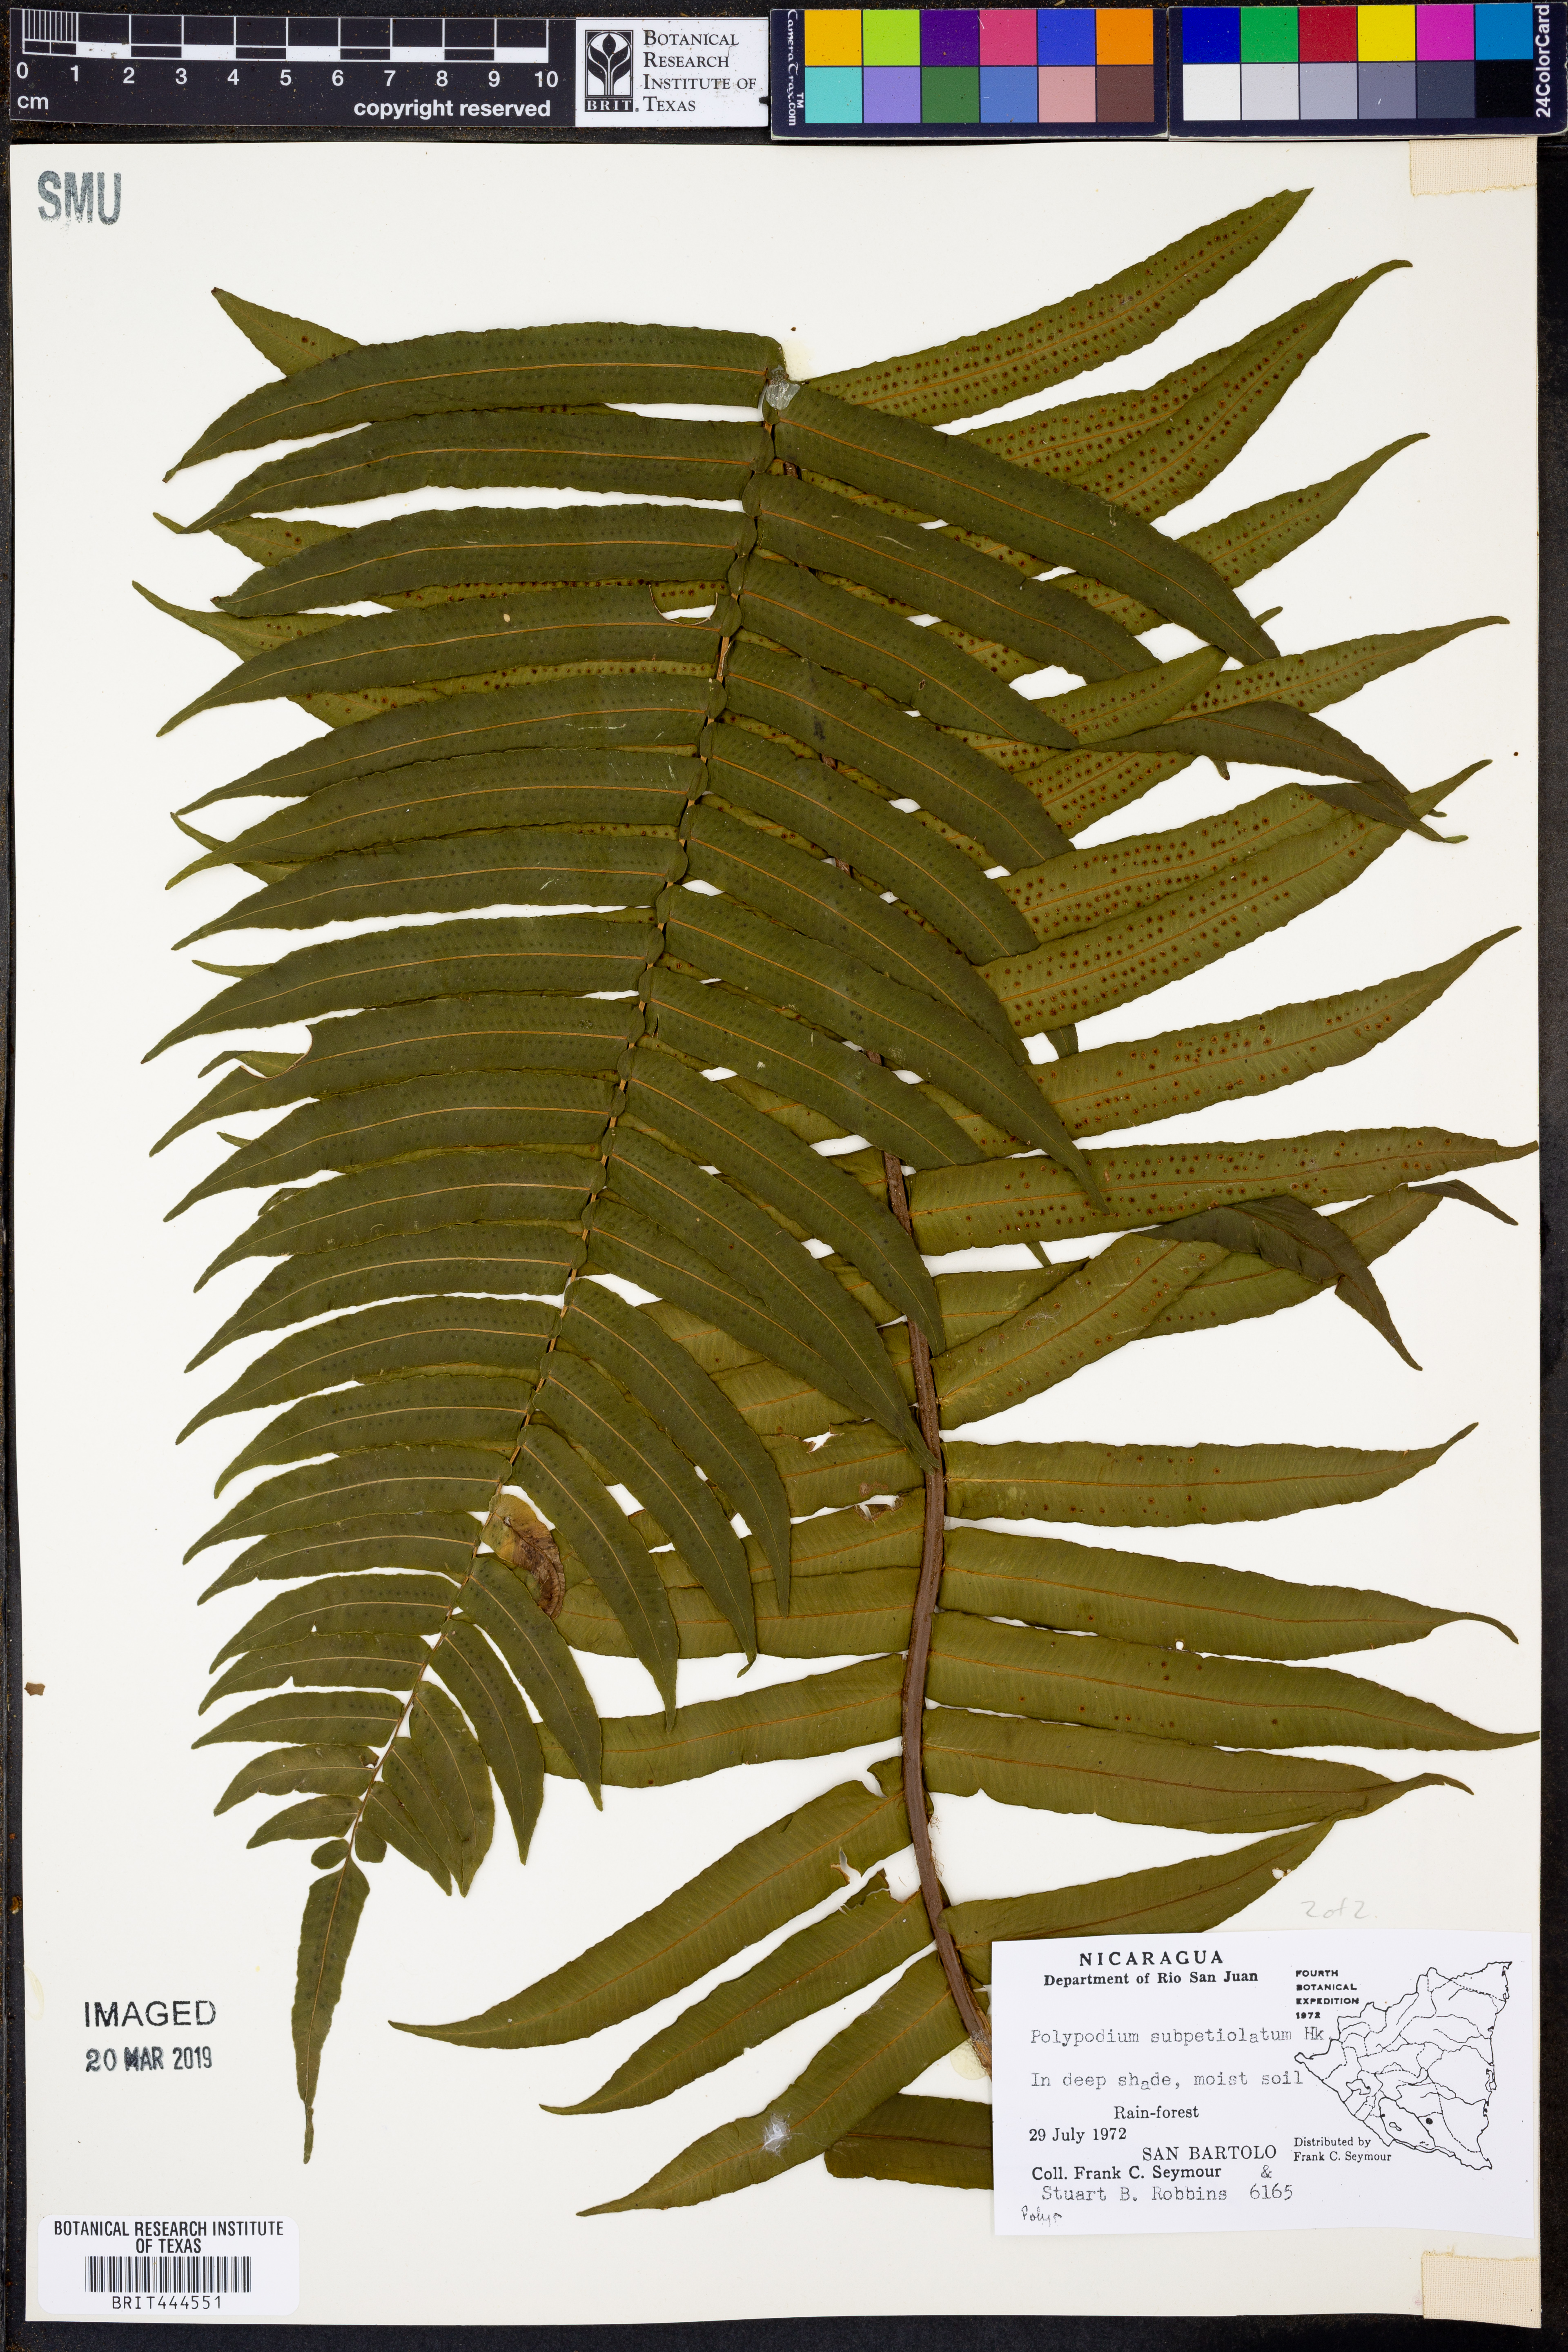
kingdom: Plantae
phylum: Tracheophyta
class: Polypodiopsida
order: Polypodiales
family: Polypodiaceae
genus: Polypodium
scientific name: Polypodium subpetiolatum
